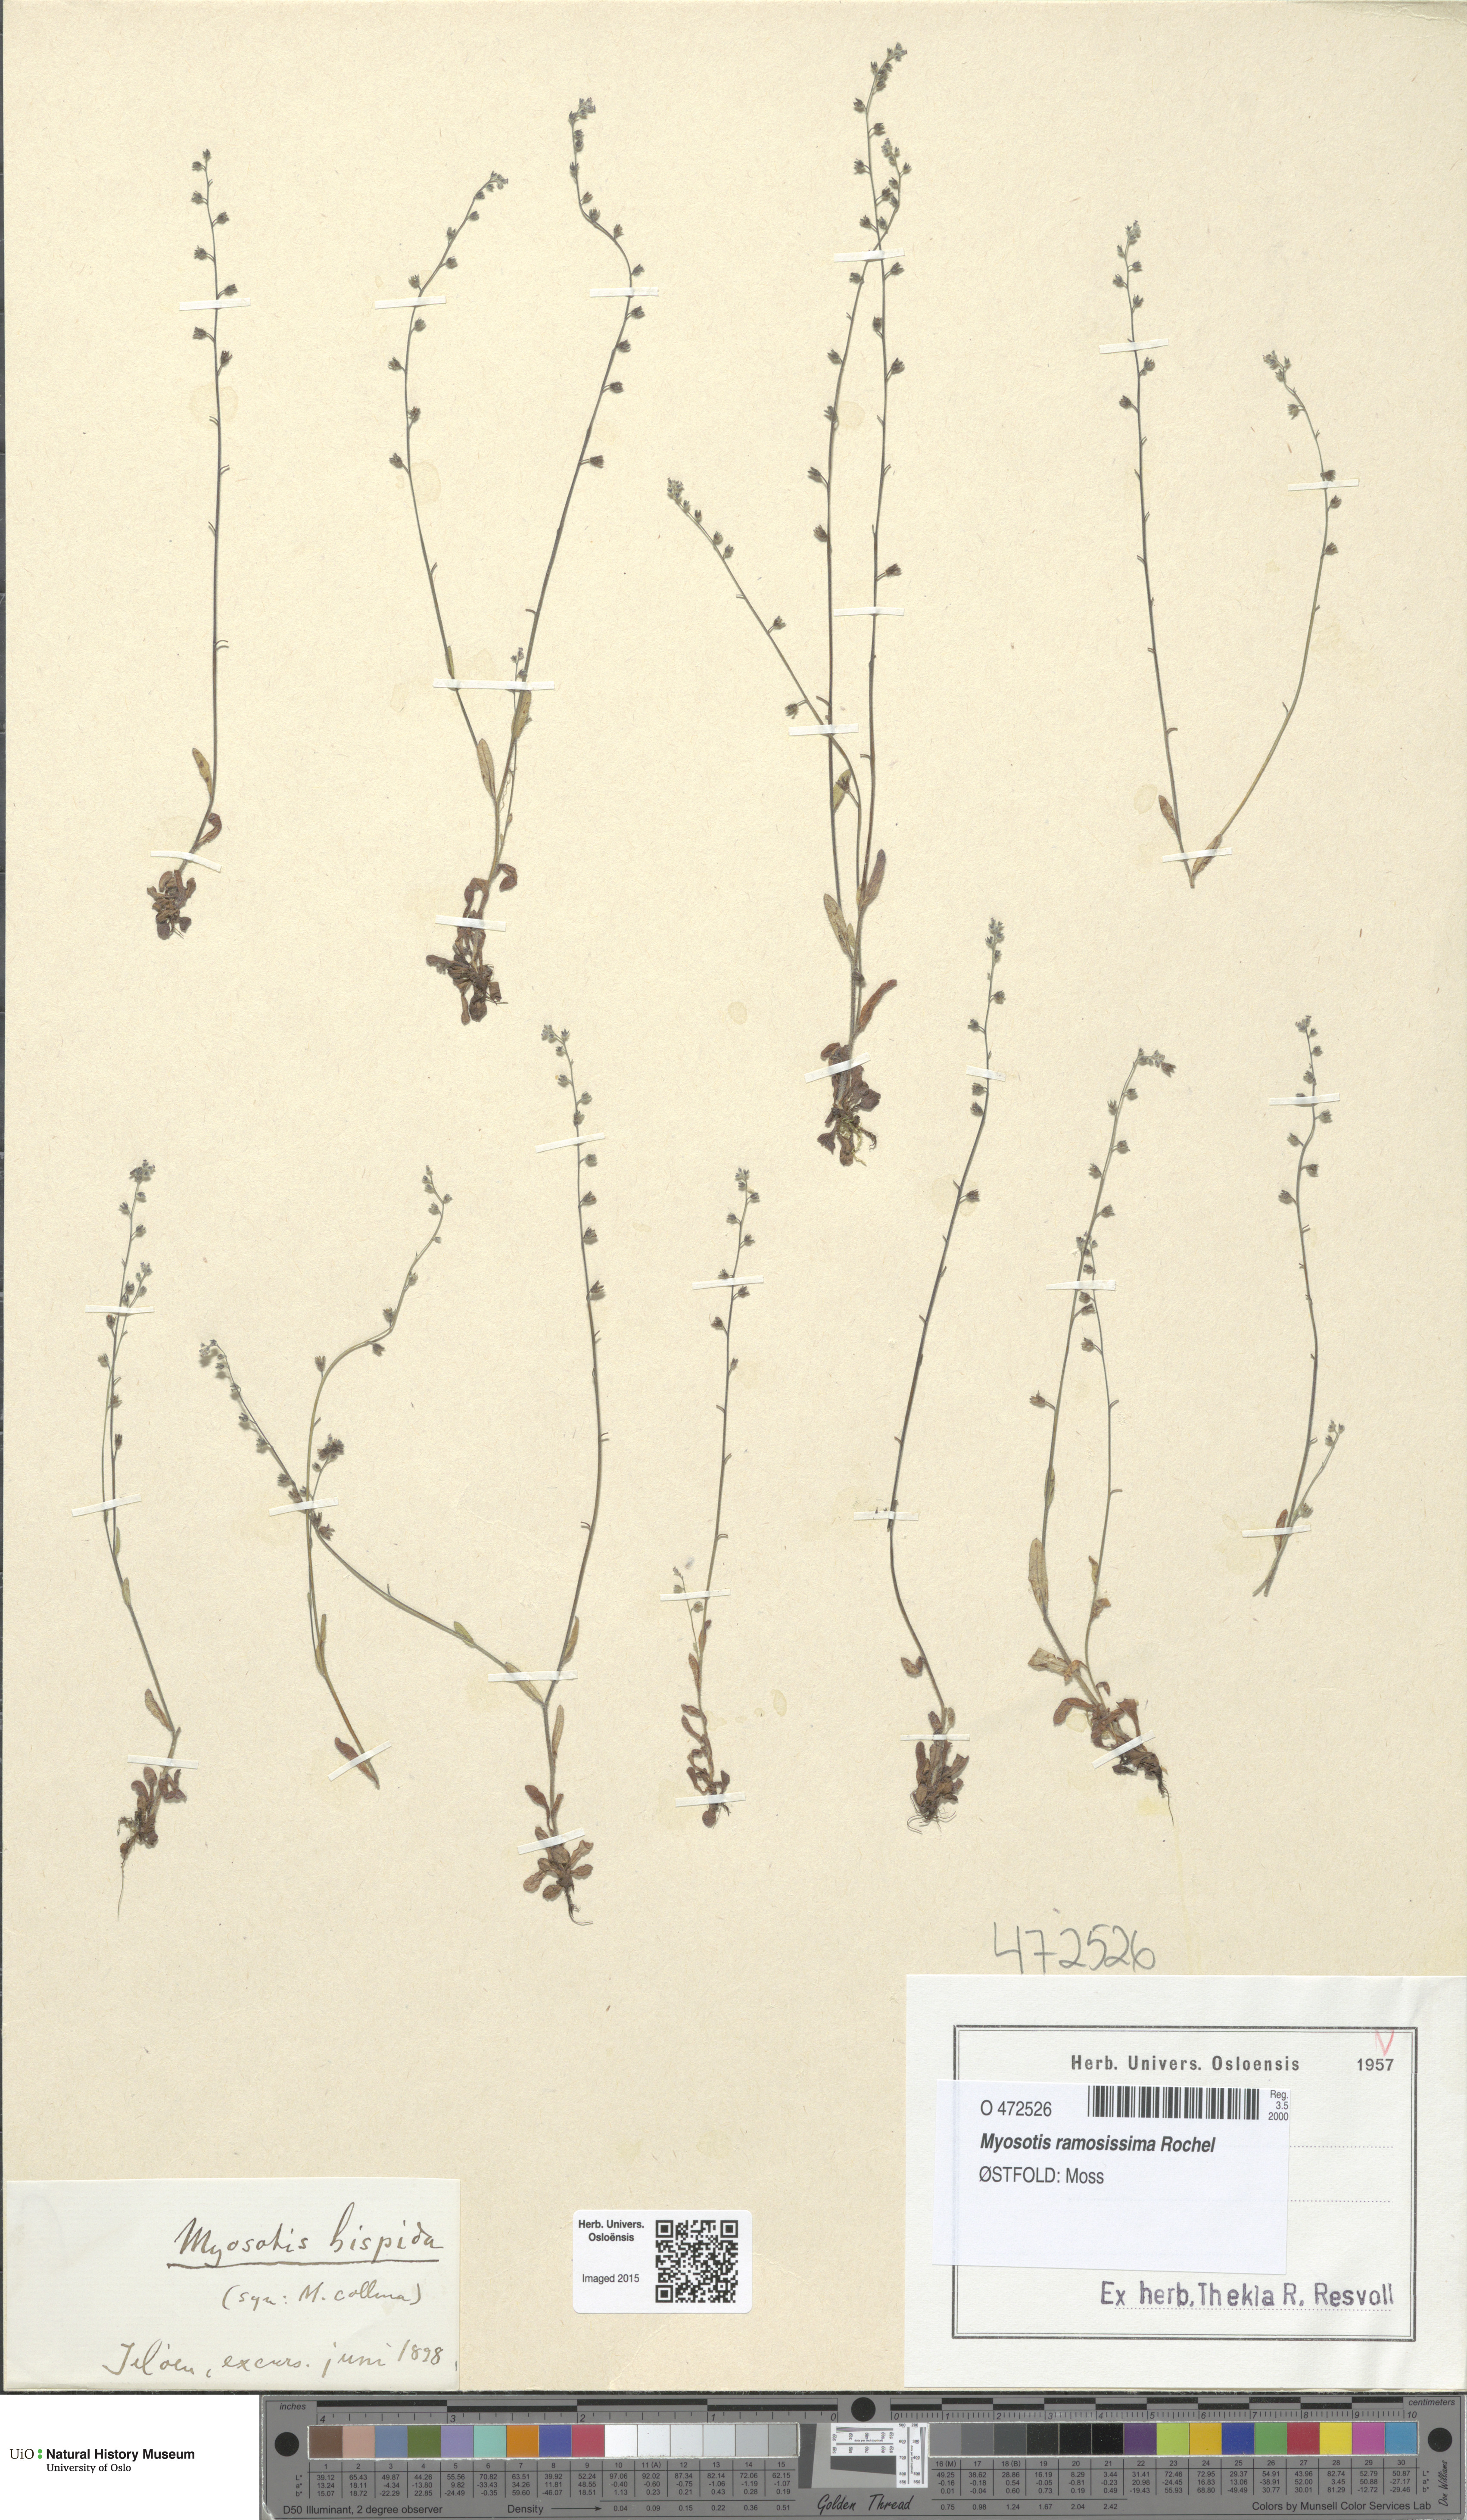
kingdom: Plantae
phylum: Tracheophyta
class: Magnoliopsida
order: Boraginales
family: Boraginaceae
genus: Myosotis
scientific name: Myosotis ramosissima
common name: Early forget-me-not
